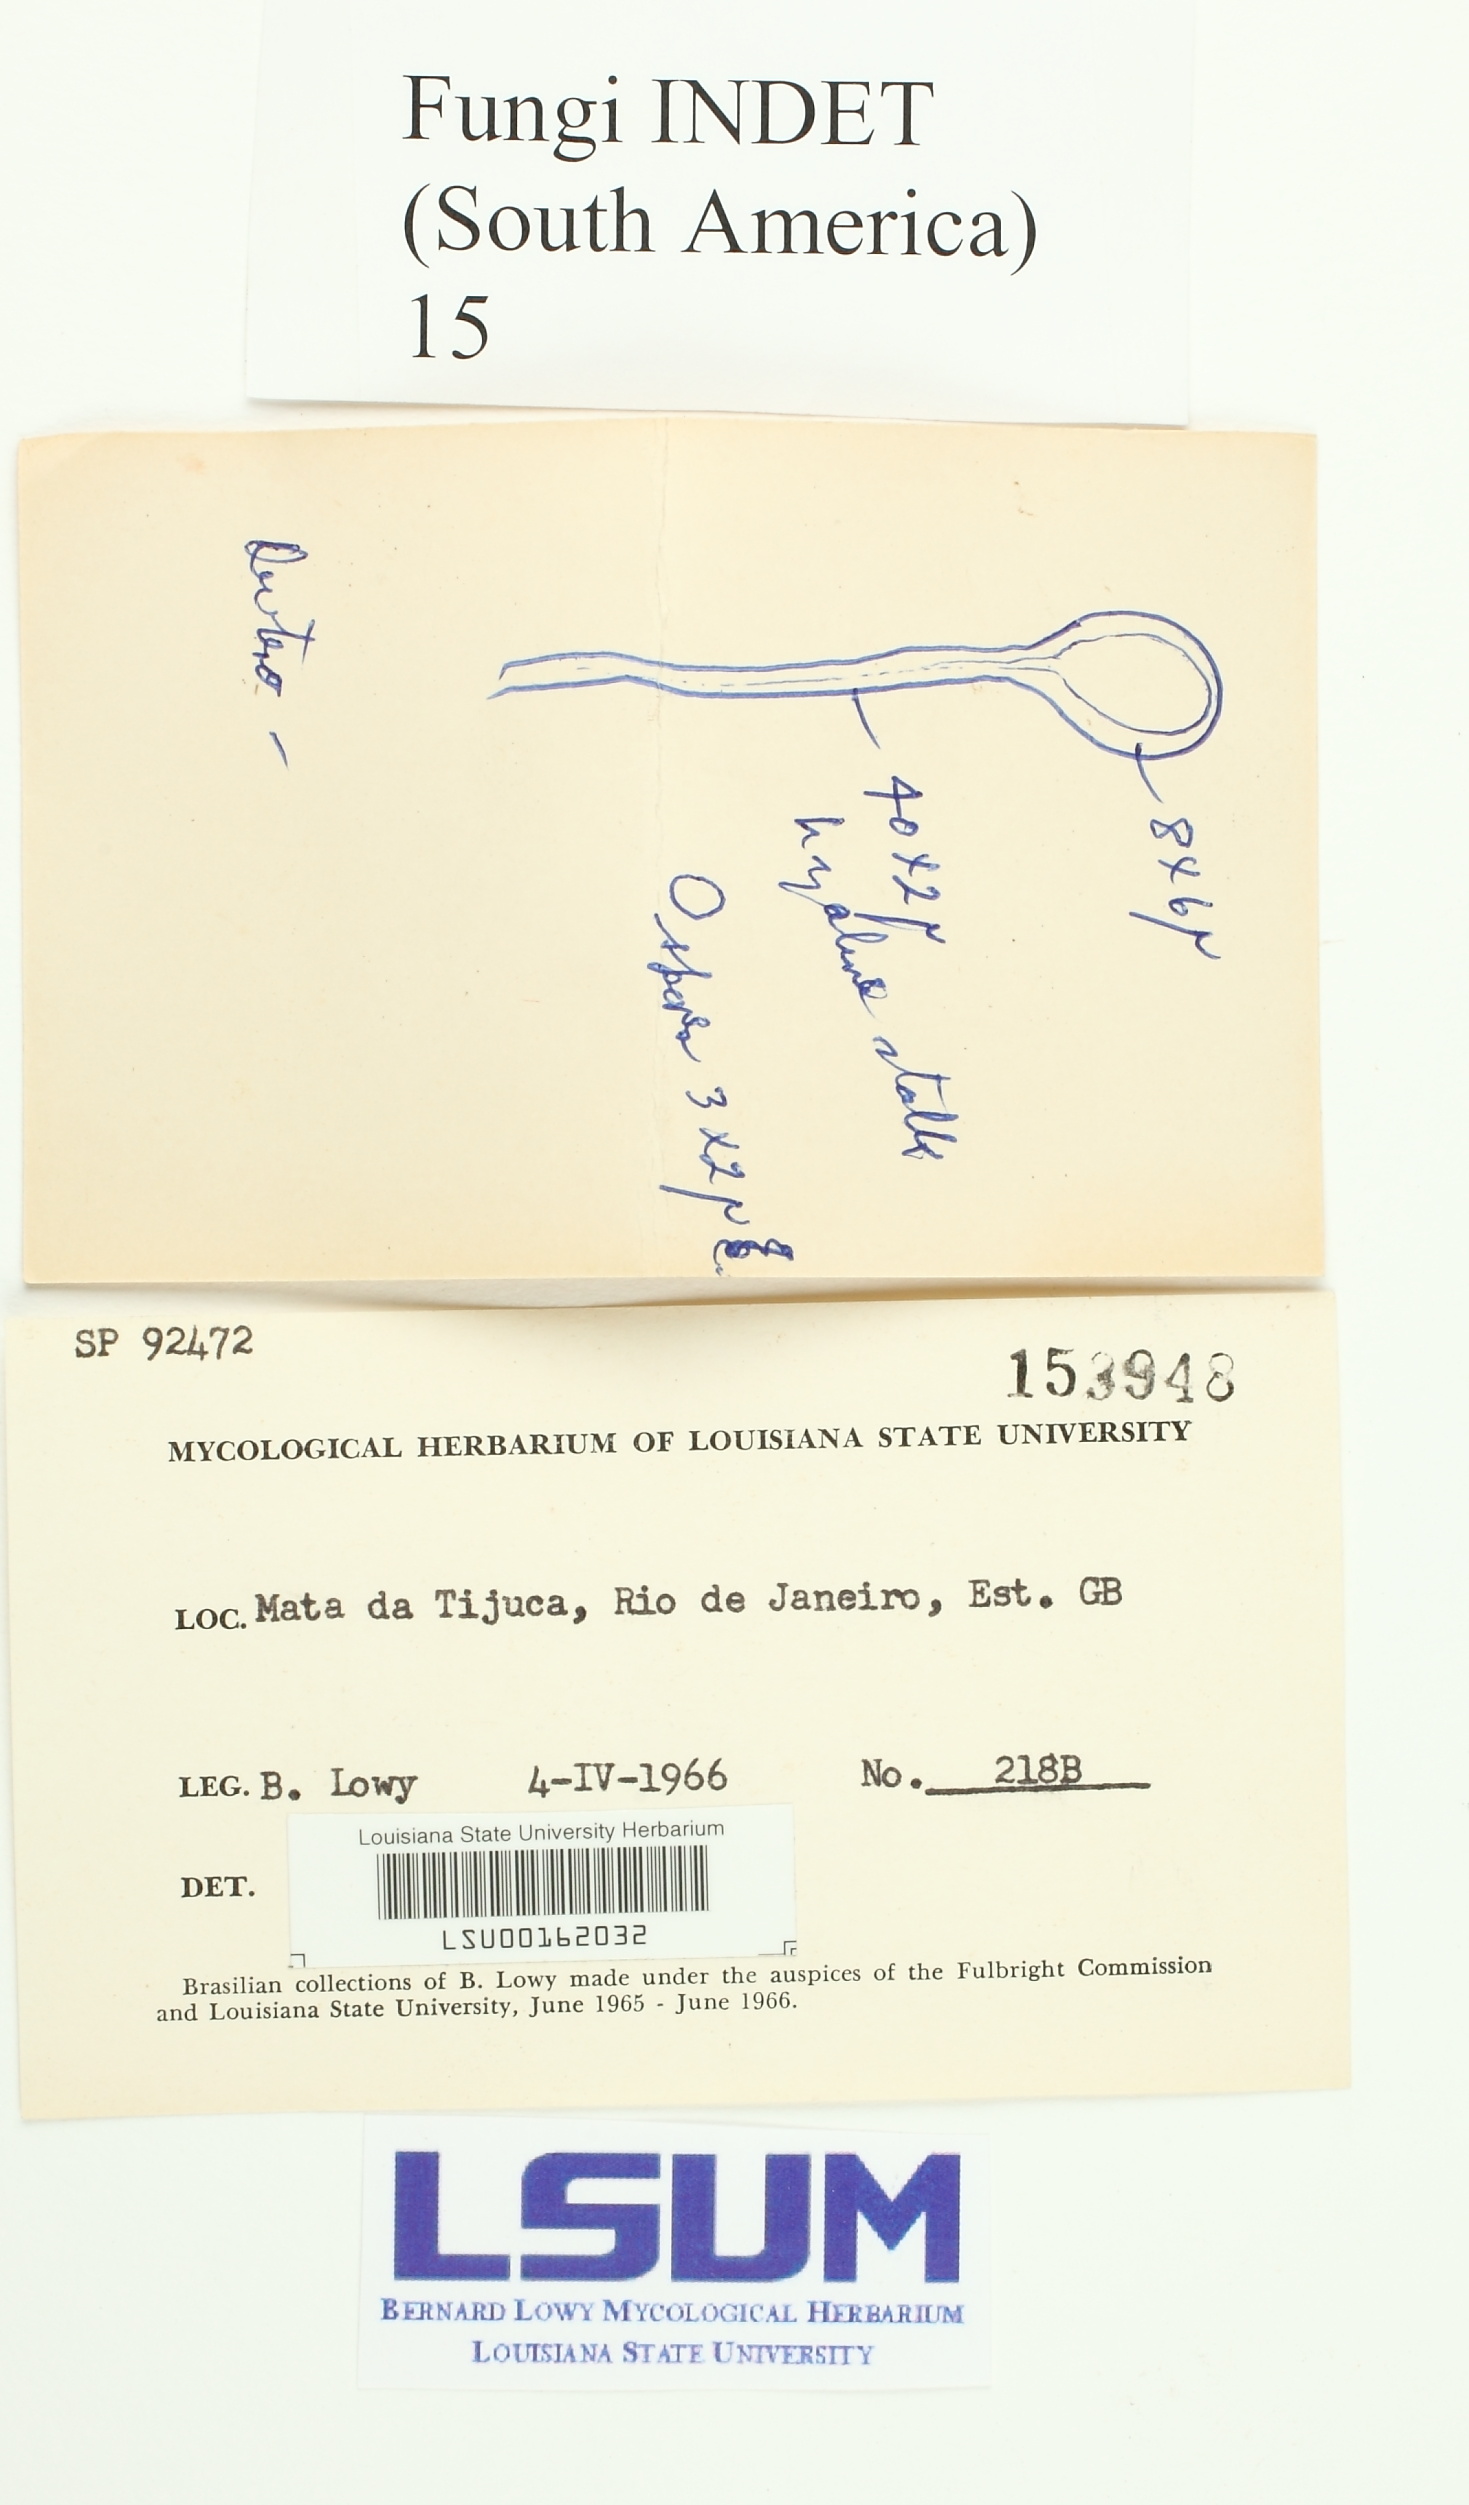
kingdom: Fungi
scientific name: Fungi
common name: Fungi
